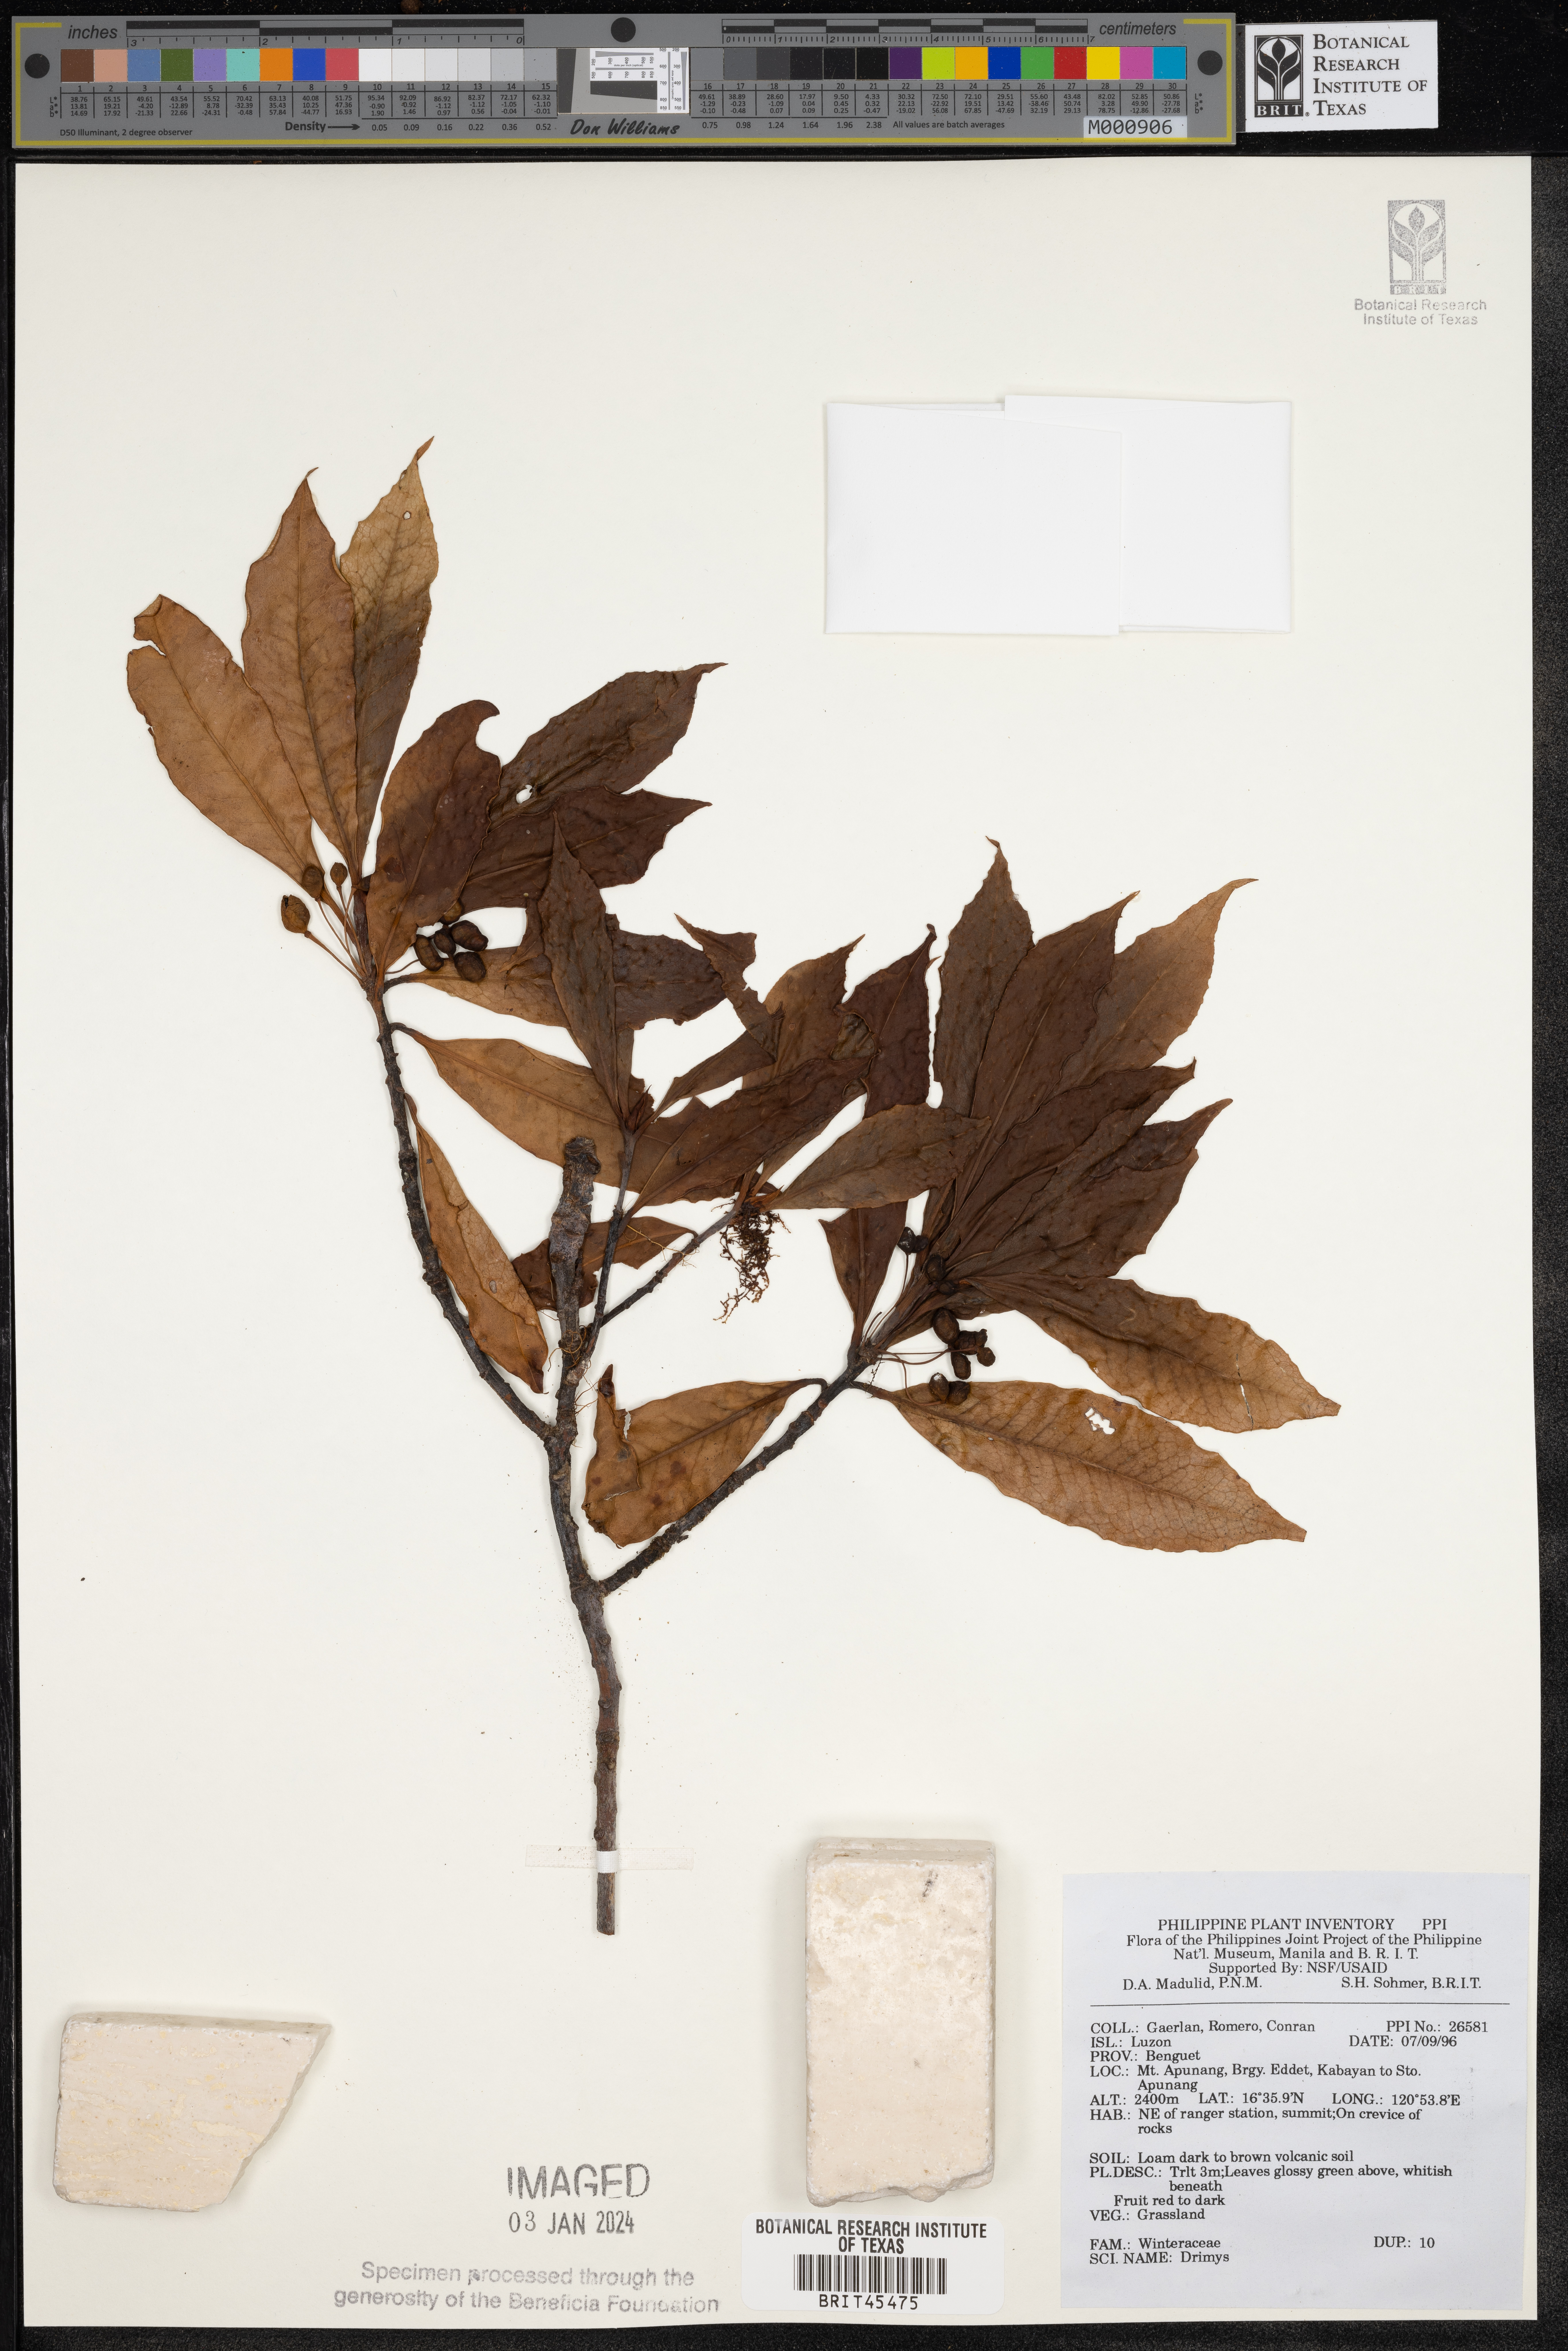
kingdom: Plantae
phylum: Tracheophyta
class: Magnoliopsida
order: Canellales
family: Winteraceae
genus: Drimys
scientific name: Drimys
